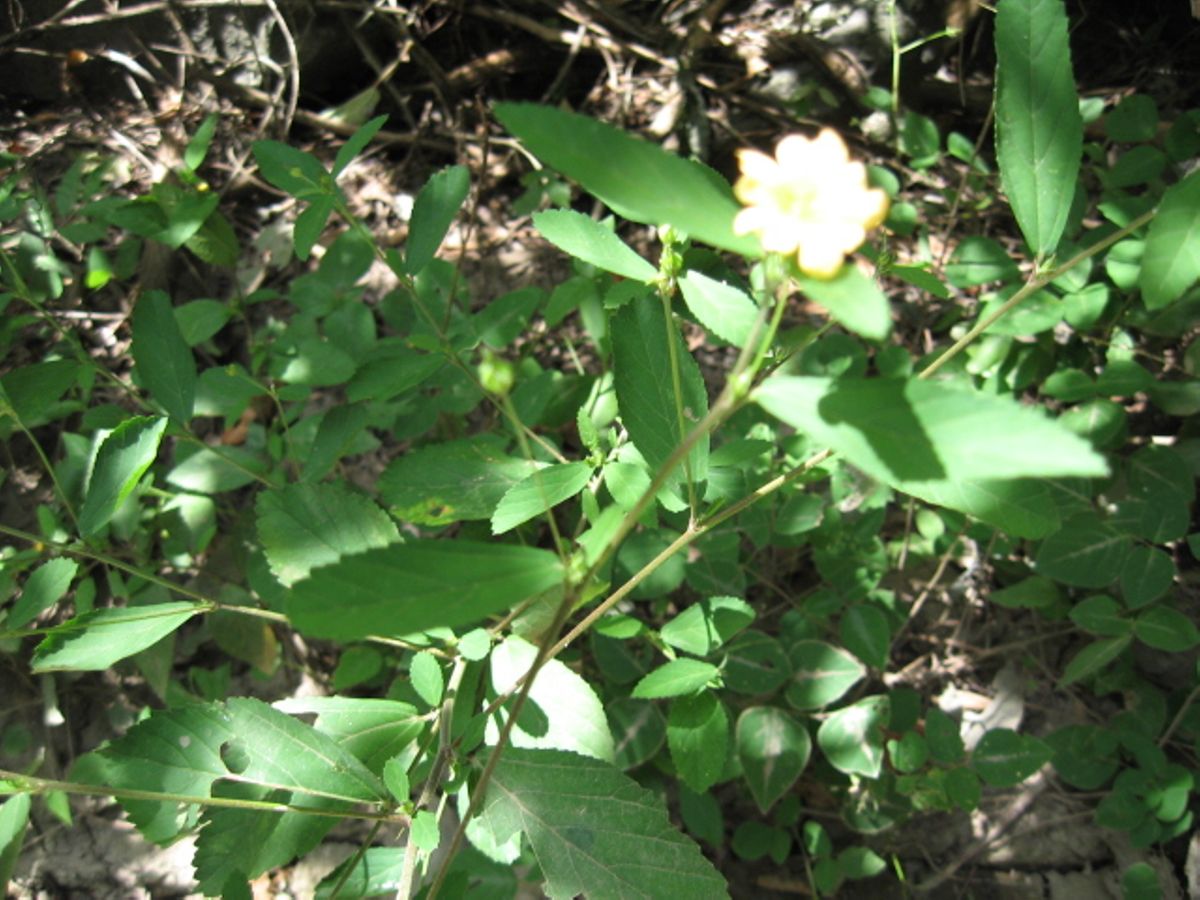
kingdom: Plantae
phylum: Tracheophyta
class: Magnoliopsida
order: Malvales
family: Malvaceae
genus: Sida
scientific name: Sida rhombifolia
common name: Queensland-hemp
